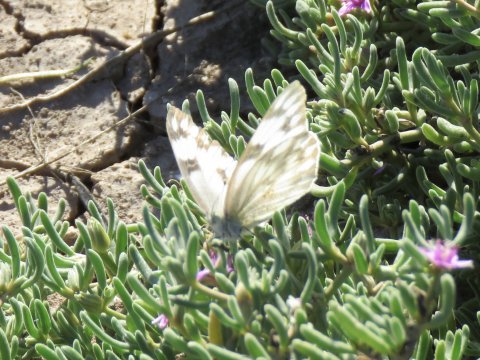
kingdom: Animalia
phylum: Arthropoda
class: Insecta
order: Lepidoptera
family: Pieridae
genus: Pontia
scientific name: Pontia protodice
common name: Checkered White
